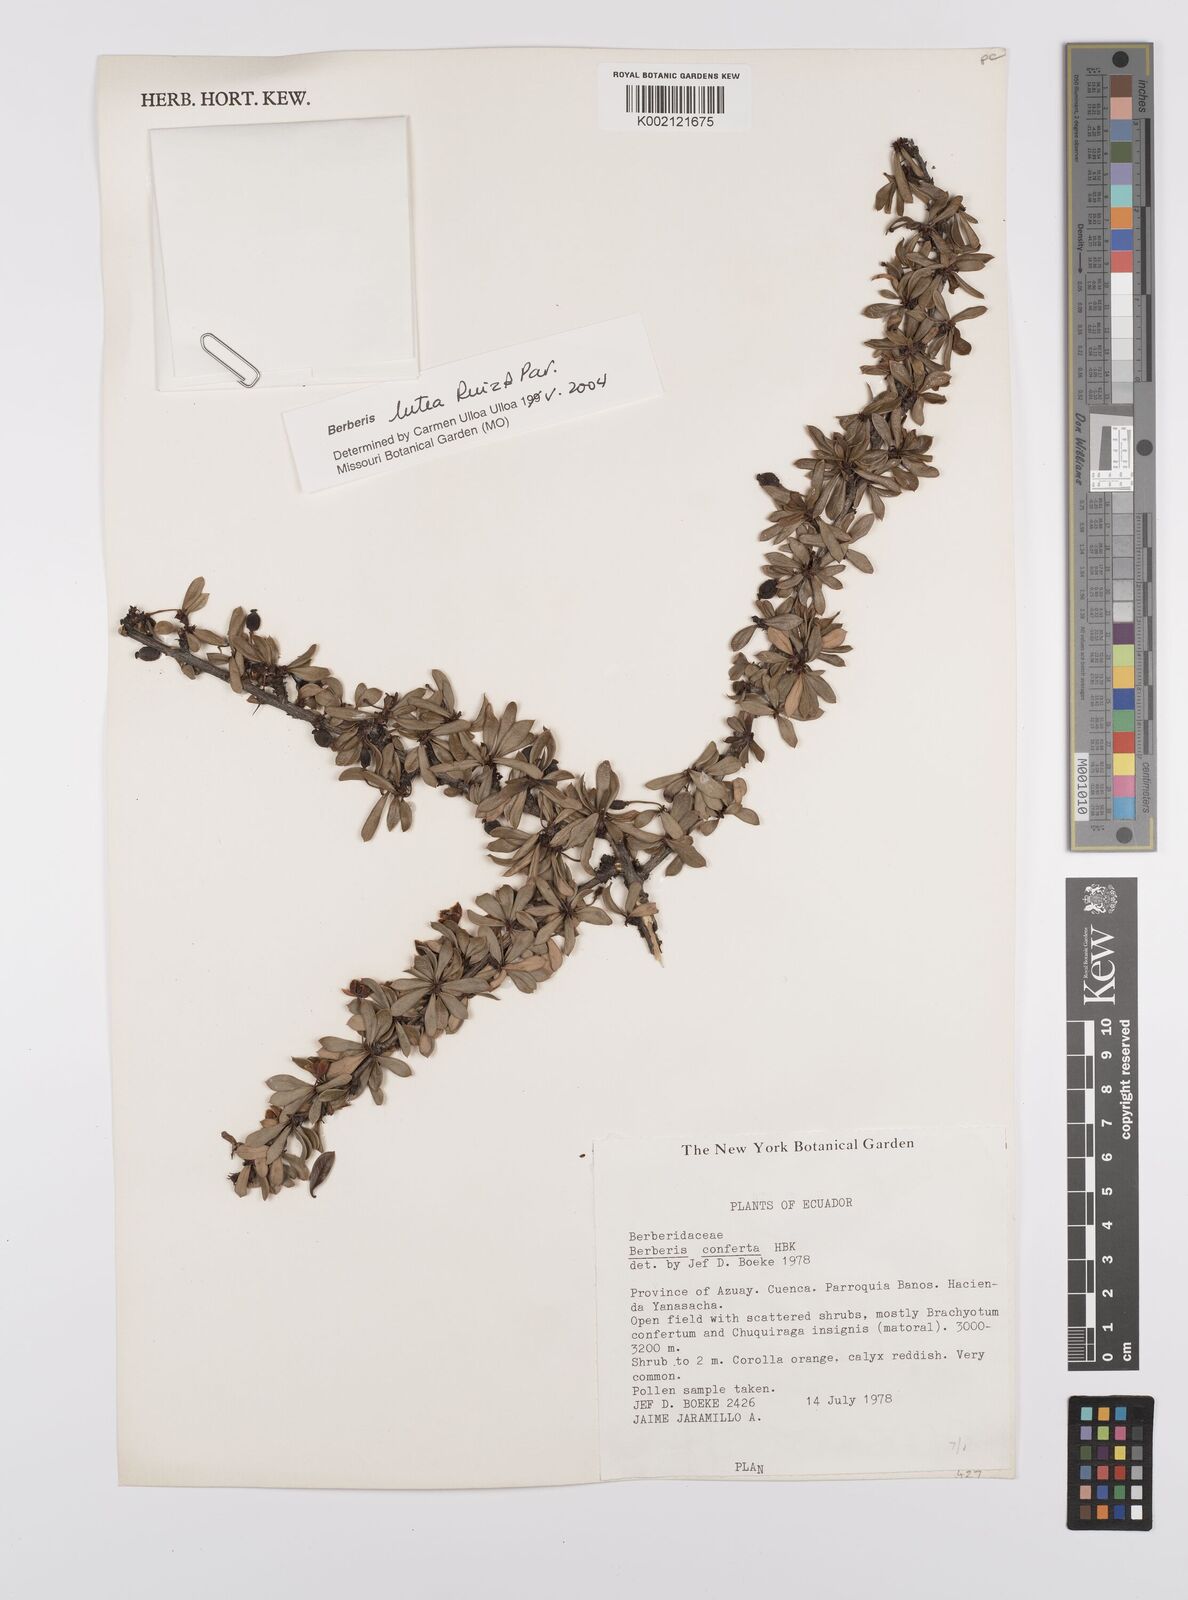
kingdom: Plantae
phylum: Tracheophyta
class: Magnoliopsida
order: Ranunculales
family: Berberidaceae
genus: Berberis
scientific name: Berberis lutea
